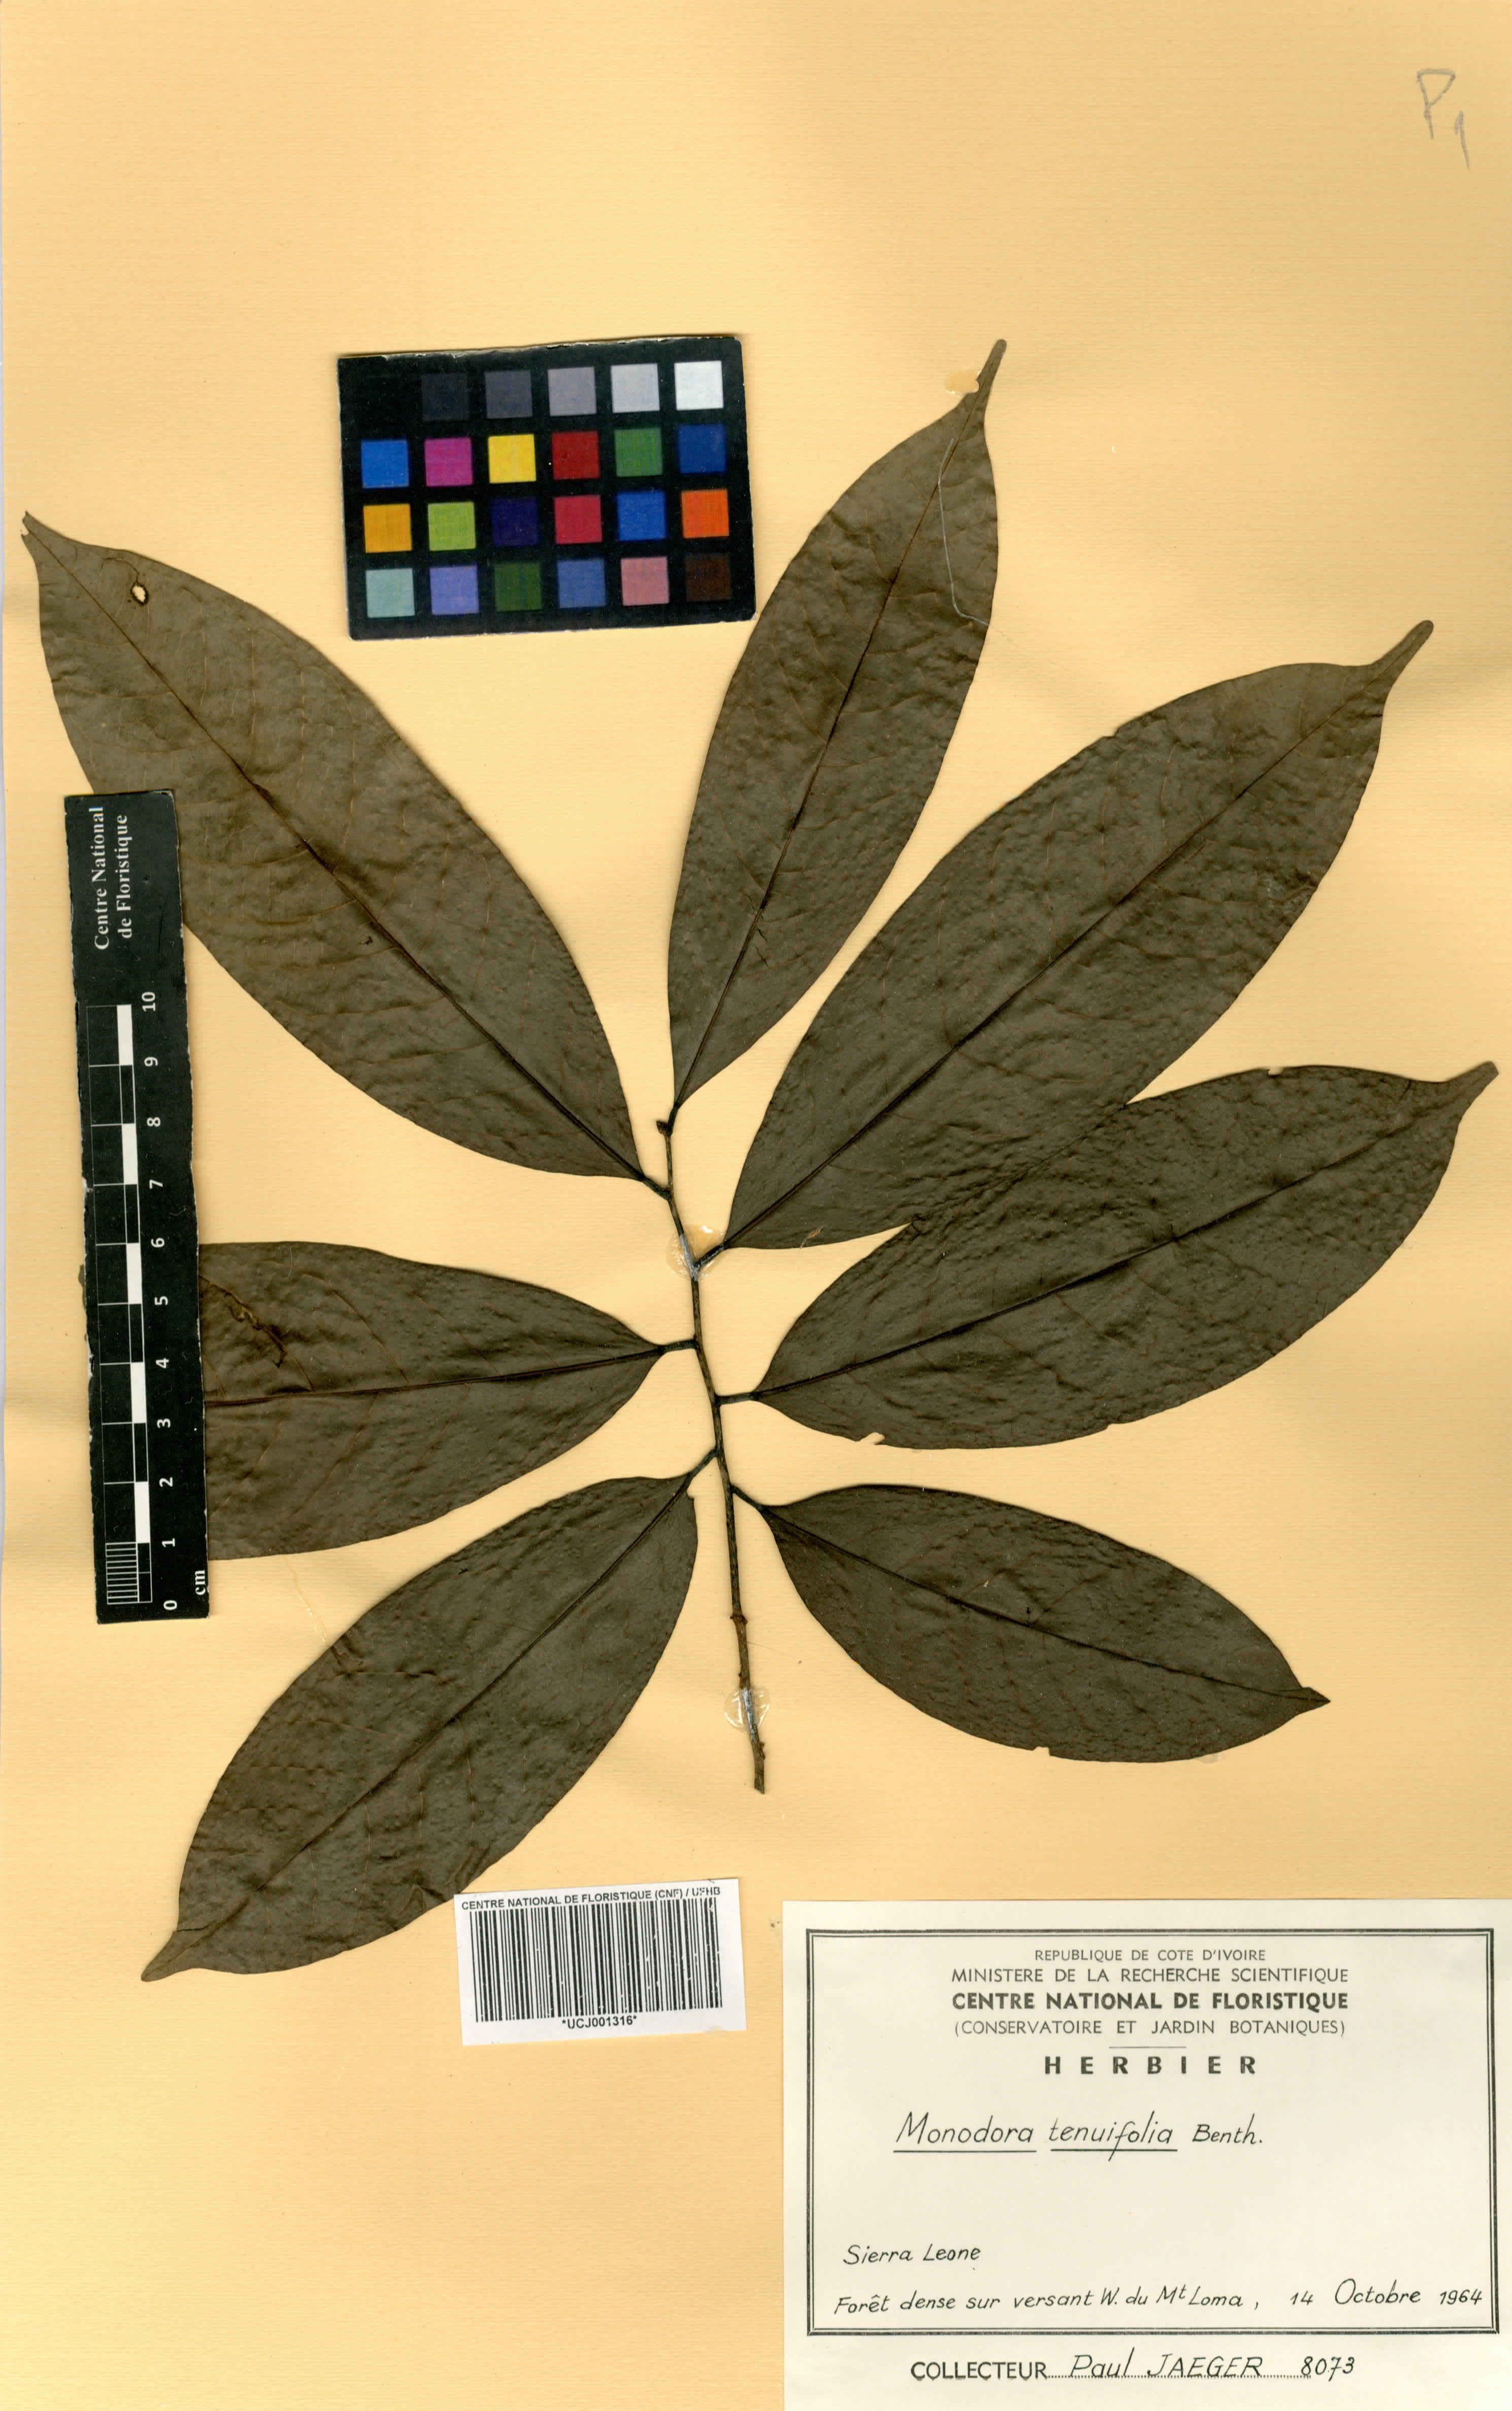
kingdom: Plantae
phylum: Tracheophyta
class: Magnoliopsida
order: Magnoliales
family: Annonaceae
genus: Monodora
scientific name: Monodora tenuifolia
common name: Orchidtree
